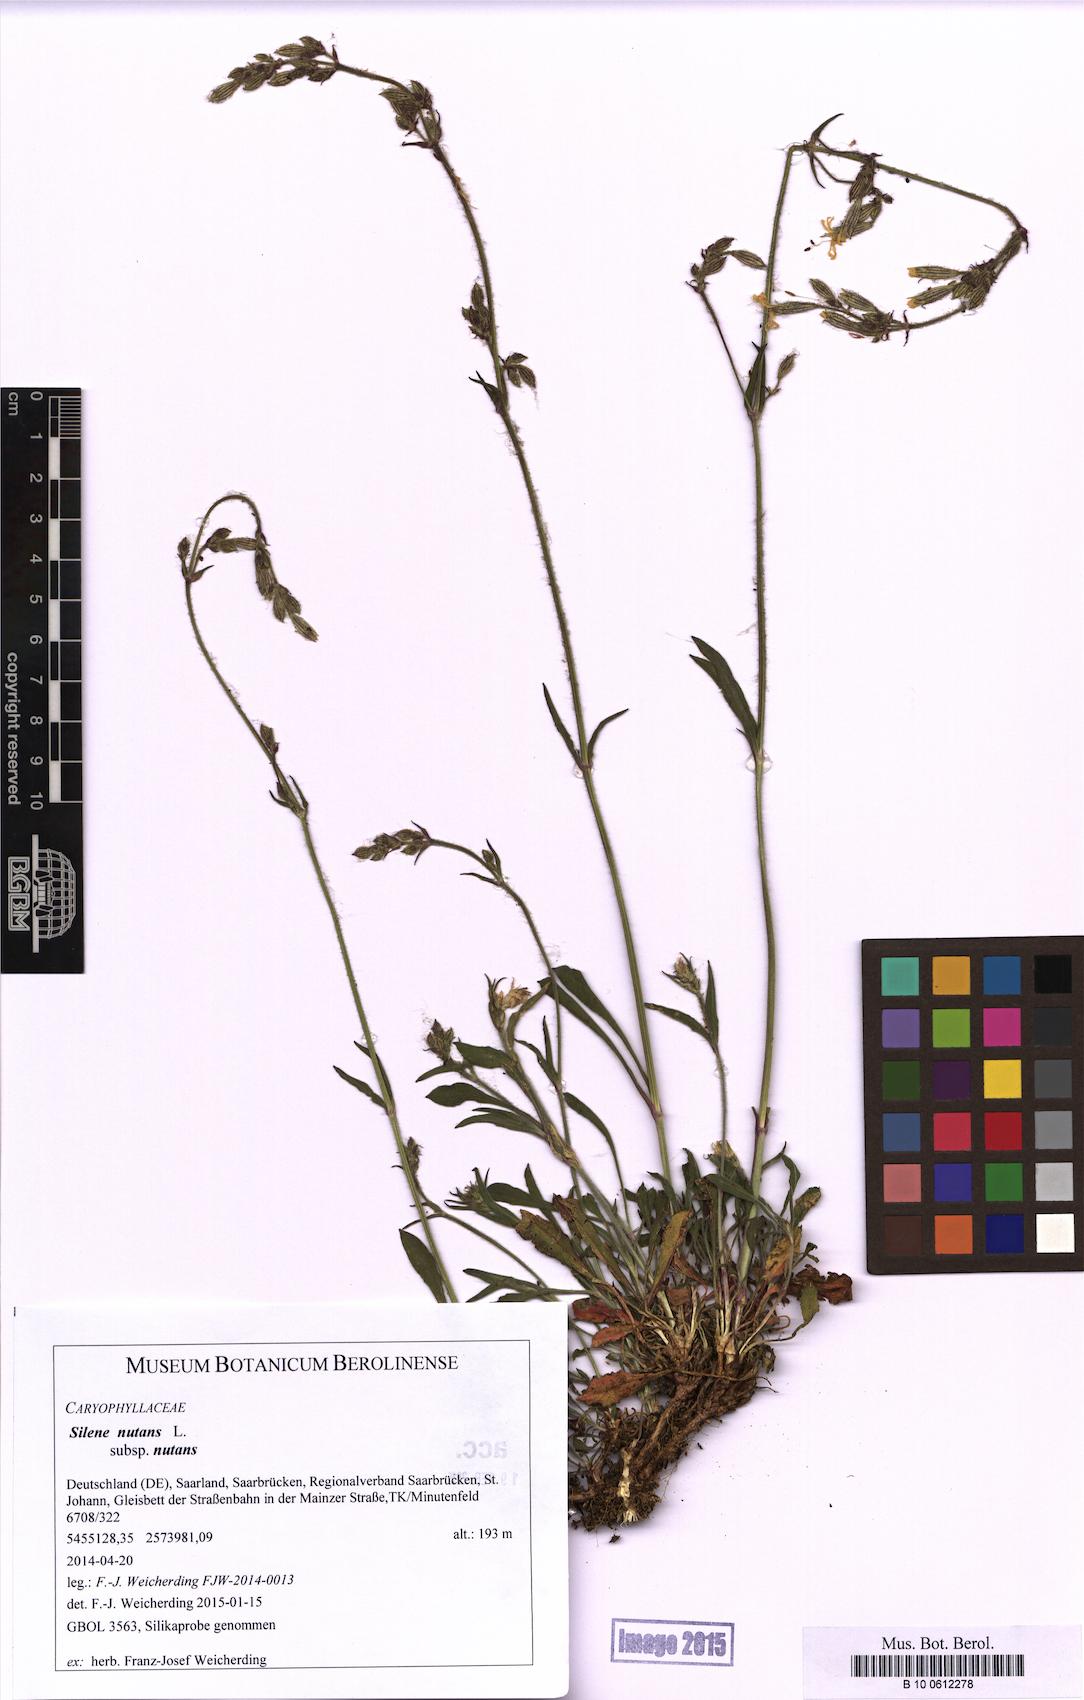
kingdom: Plantae
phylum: Tracheophyta
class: Magnoliopsida
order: Caryophyllales
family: Caryophyllaceae
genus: Silene
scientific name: Silene nutans
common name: Nottingham catchfly
